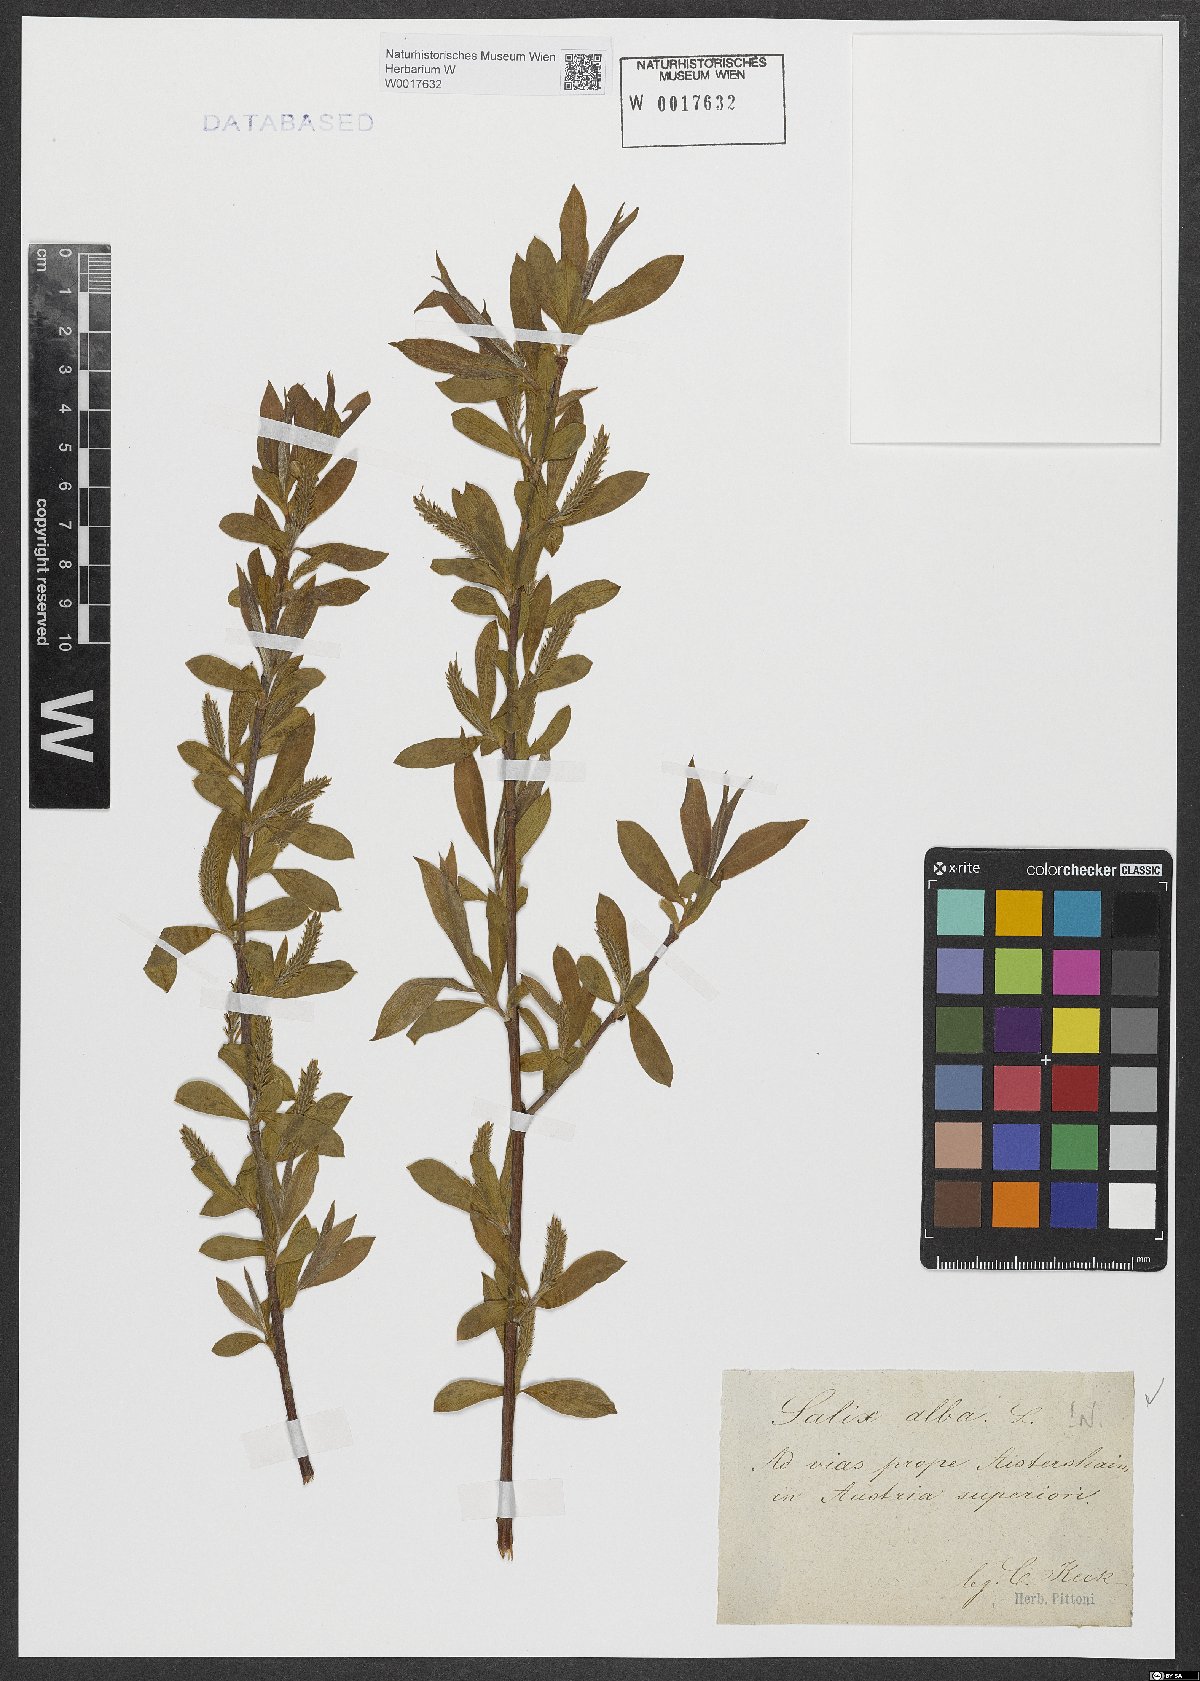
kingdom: Plantae
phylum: Tracheophyta
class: Magnoliopsida
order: Malpighiales
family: Salicaceae
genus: Salix
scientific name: Salix alba
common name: White willow
